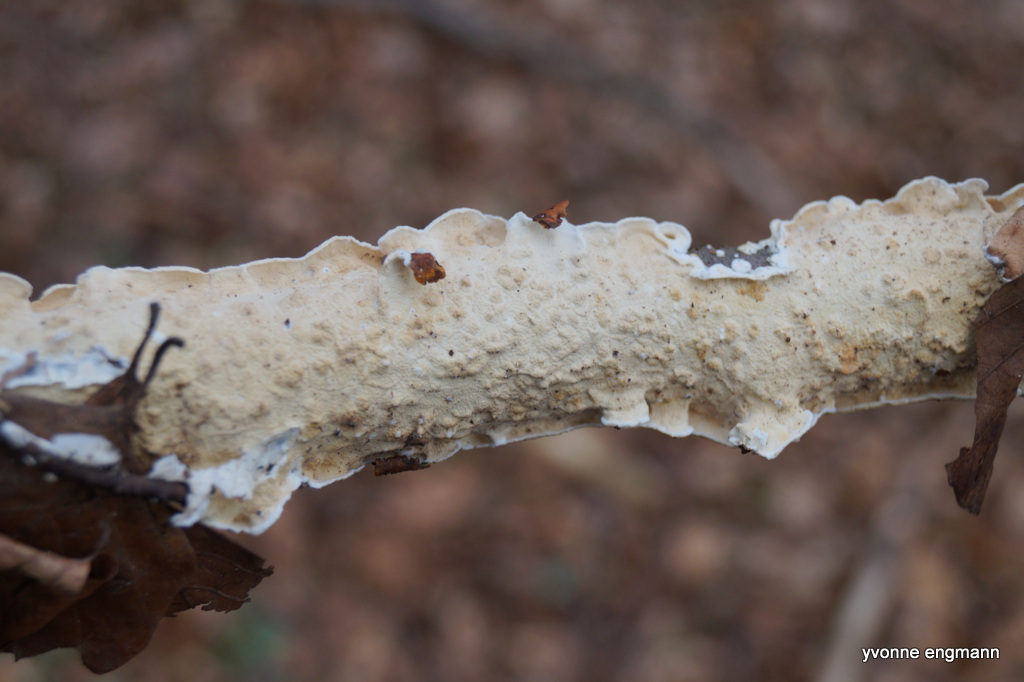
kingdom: Fungi
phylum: Basidiomycota
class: Agaricomycetes
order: Polyporales
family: Irpicaceae
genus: Byssomerulius
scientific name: Byssomerulius corium
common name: læder-åresvamp
